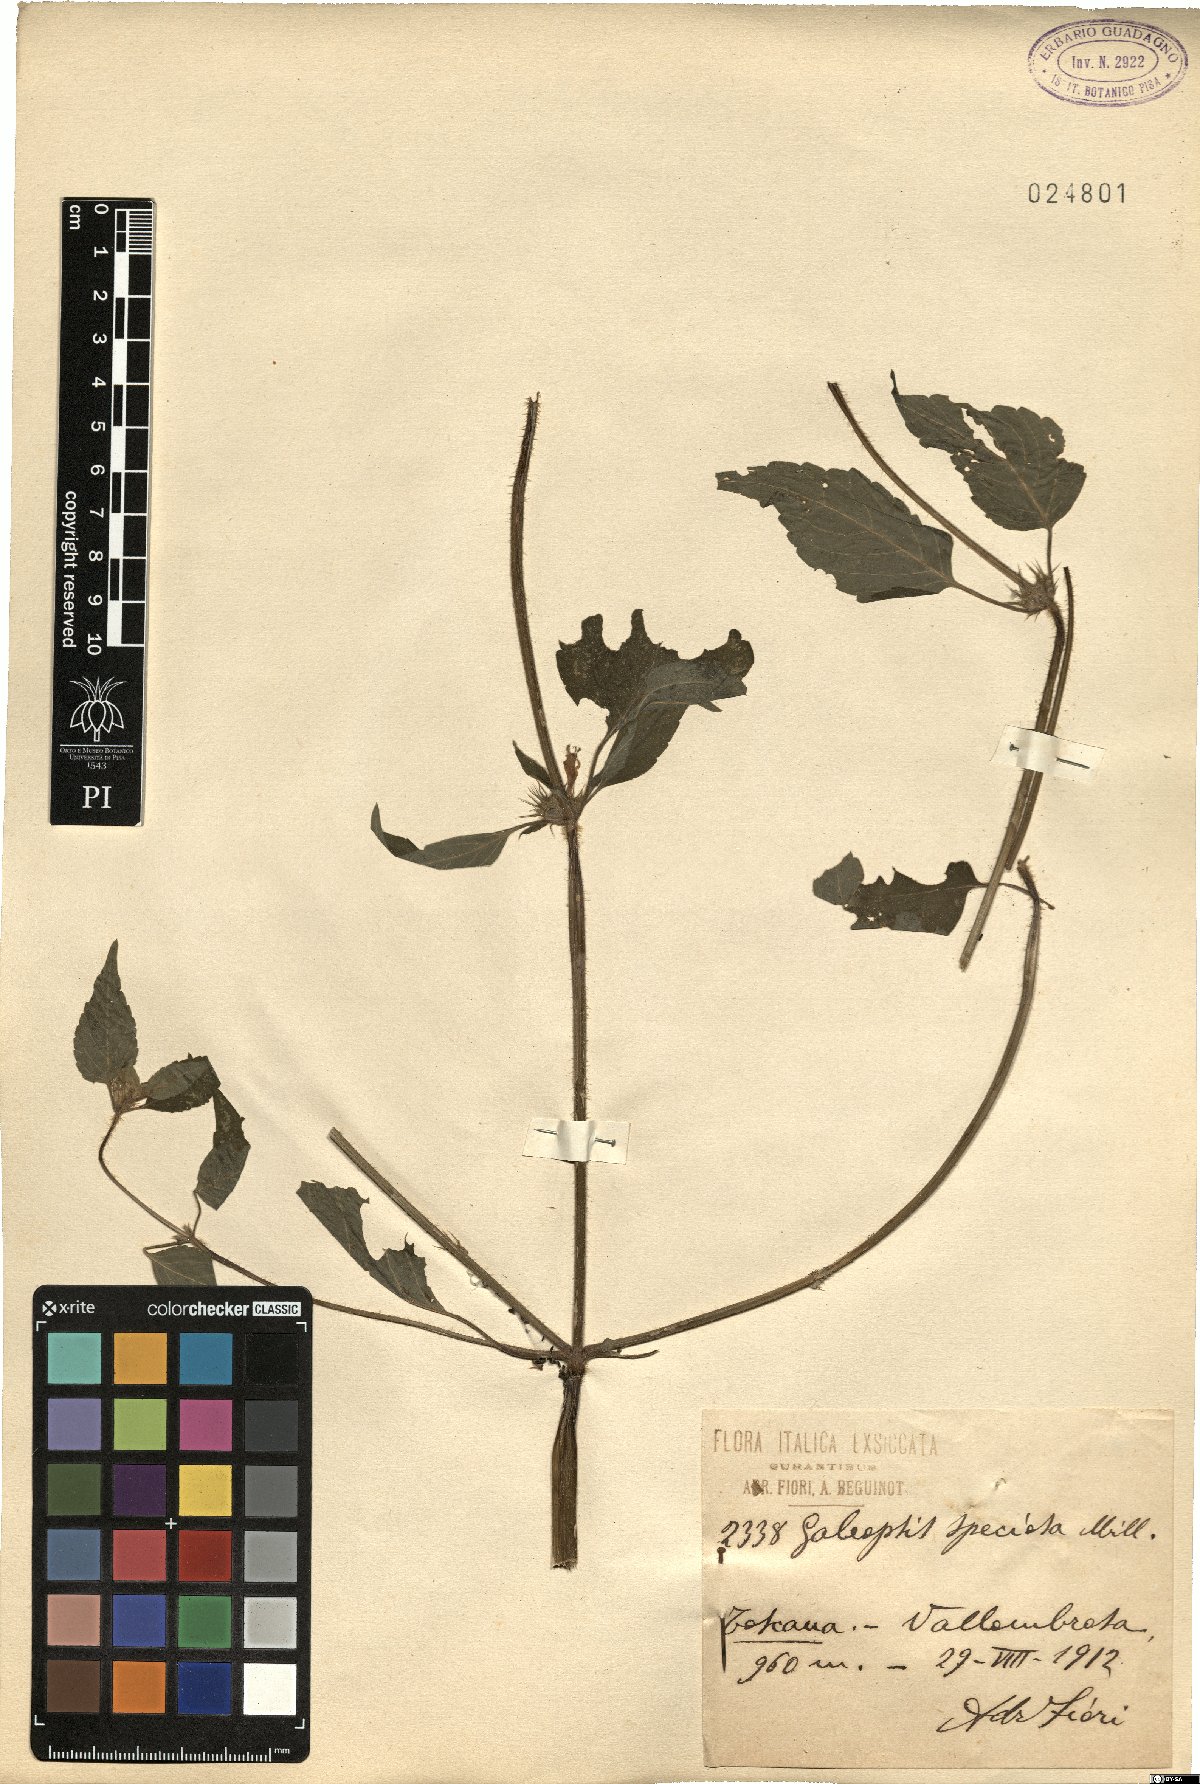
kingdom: Plantae
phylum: Tracheophyta
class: Magnoliopsida
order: Lamiales
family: Lamiaceae
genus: Galeopsis
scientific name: Galeopsis speciosa
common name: Large-flowered hemp-nettle
